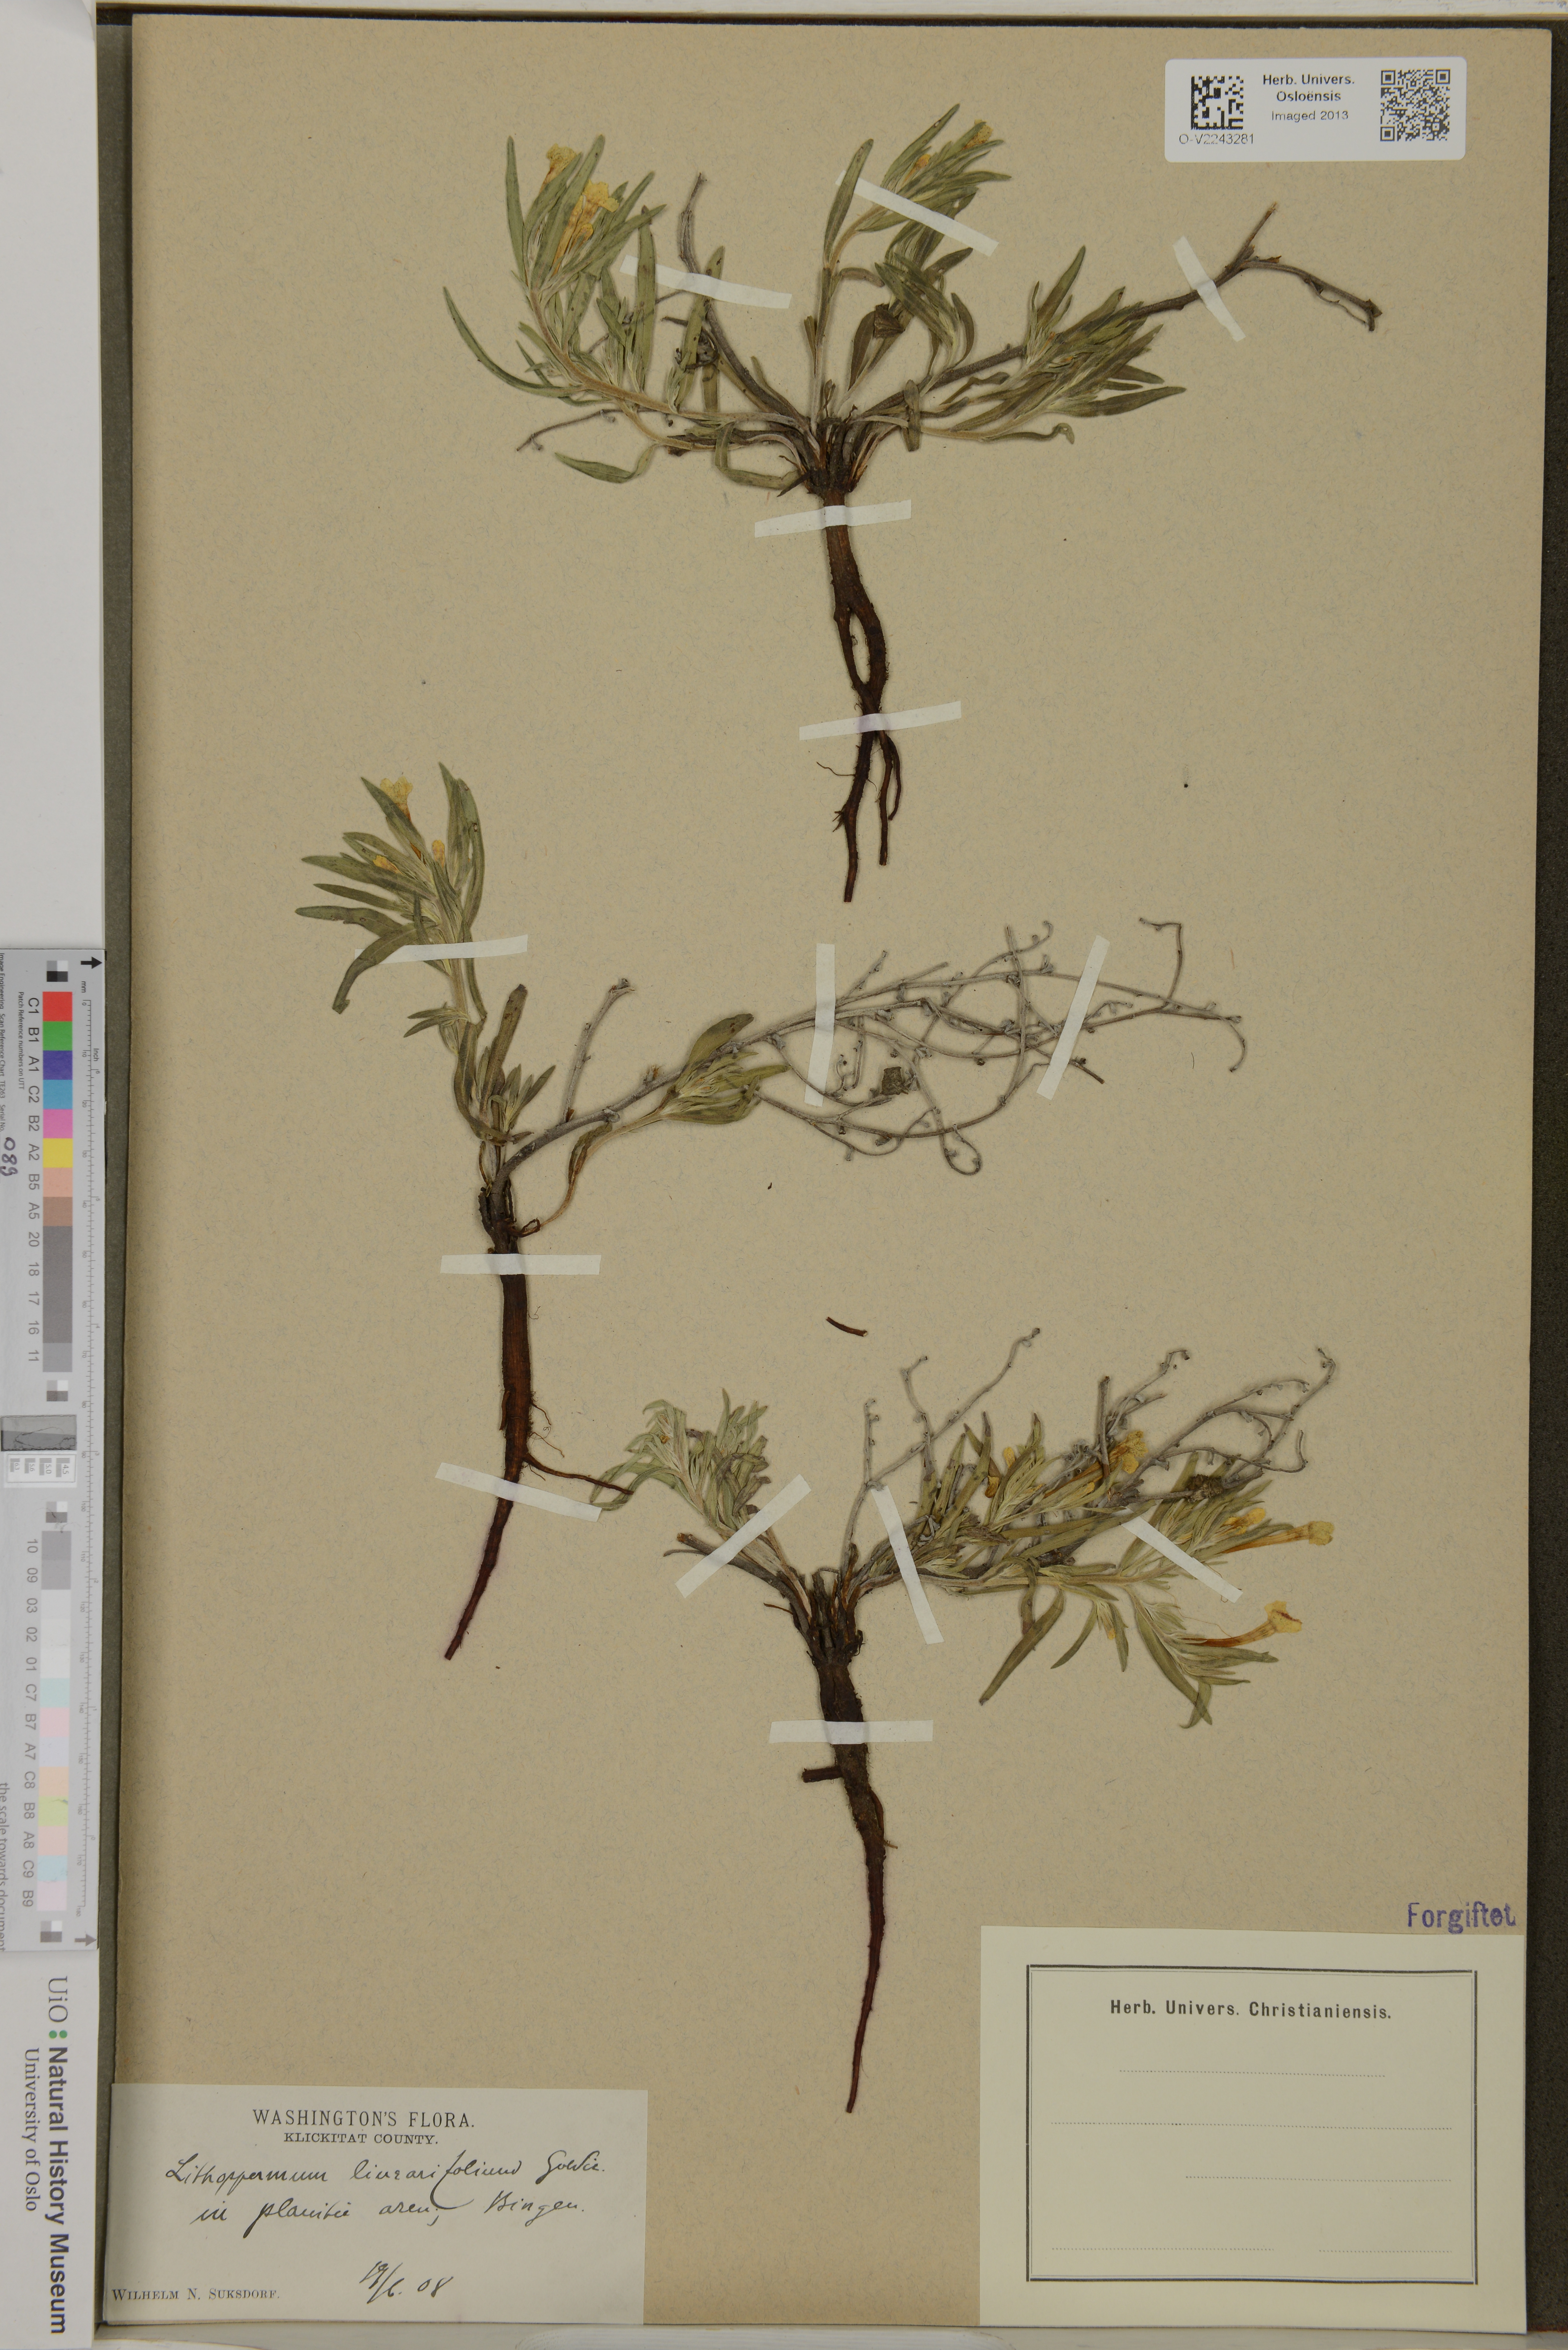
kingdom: Plantae
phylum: Tracheophyta
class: Magnoliopsida
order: Boraginales
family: Boraginaceae
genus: Lithospermum
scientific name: Lithospermum incisum
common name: Fringed gromwell
